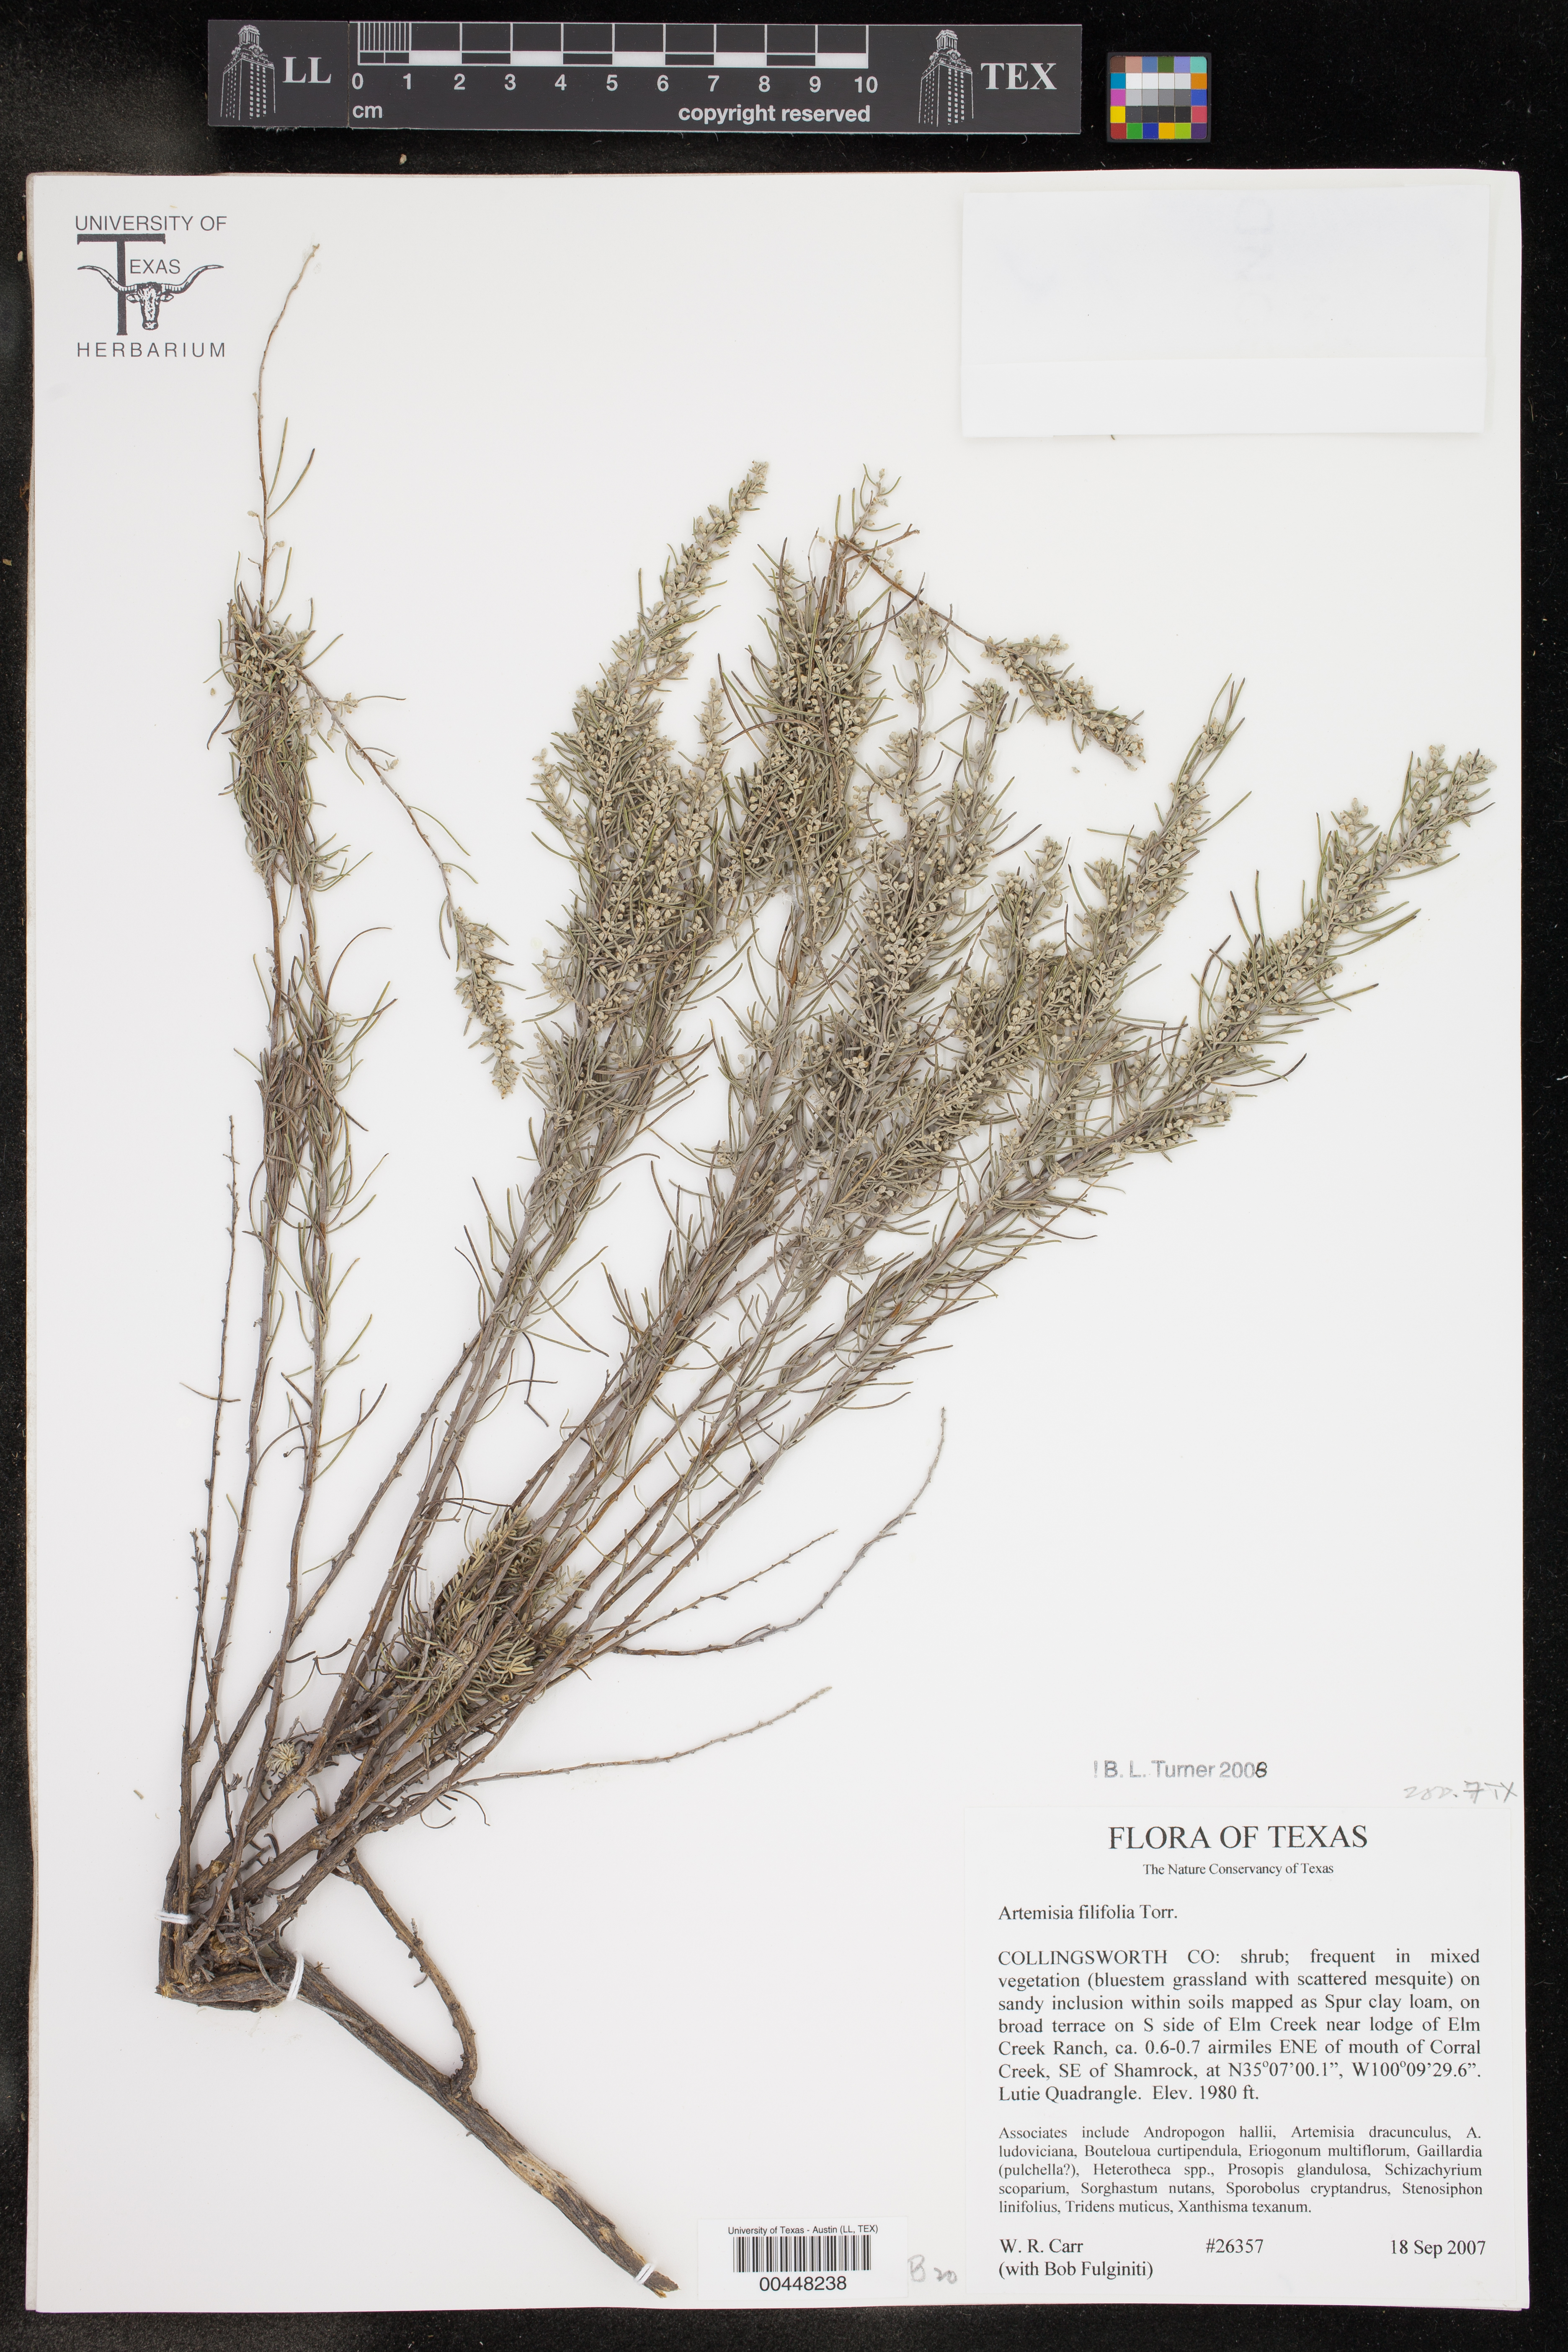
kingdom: Plantae
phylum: Tracheophyta
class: Magnoliopsida
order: Asterales
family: Asteraceae
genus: Artemisia
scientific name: Artemisia filifolia
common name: Sand-sage
